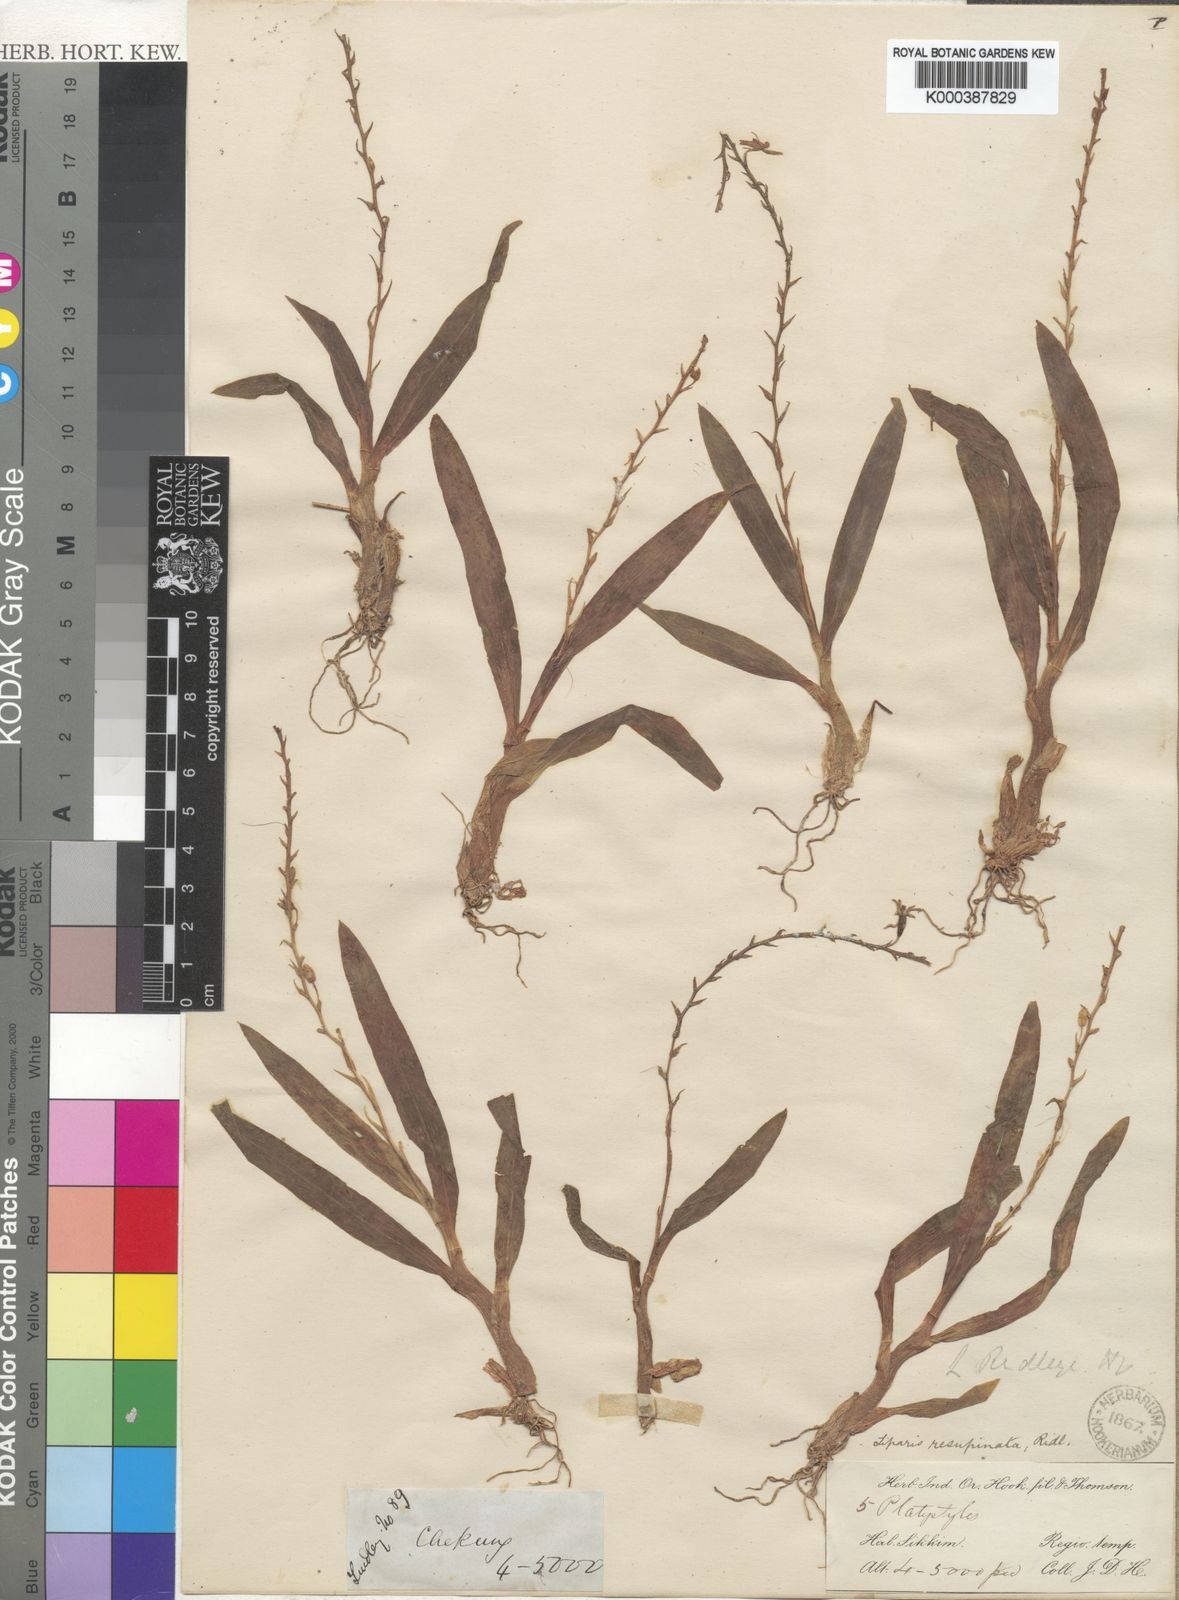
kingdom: Plantae
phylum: Tracheophyta
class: Liliopsida
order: Asparagales
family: Orchidaceae
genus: Liparis
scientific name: Liparis resupinata
